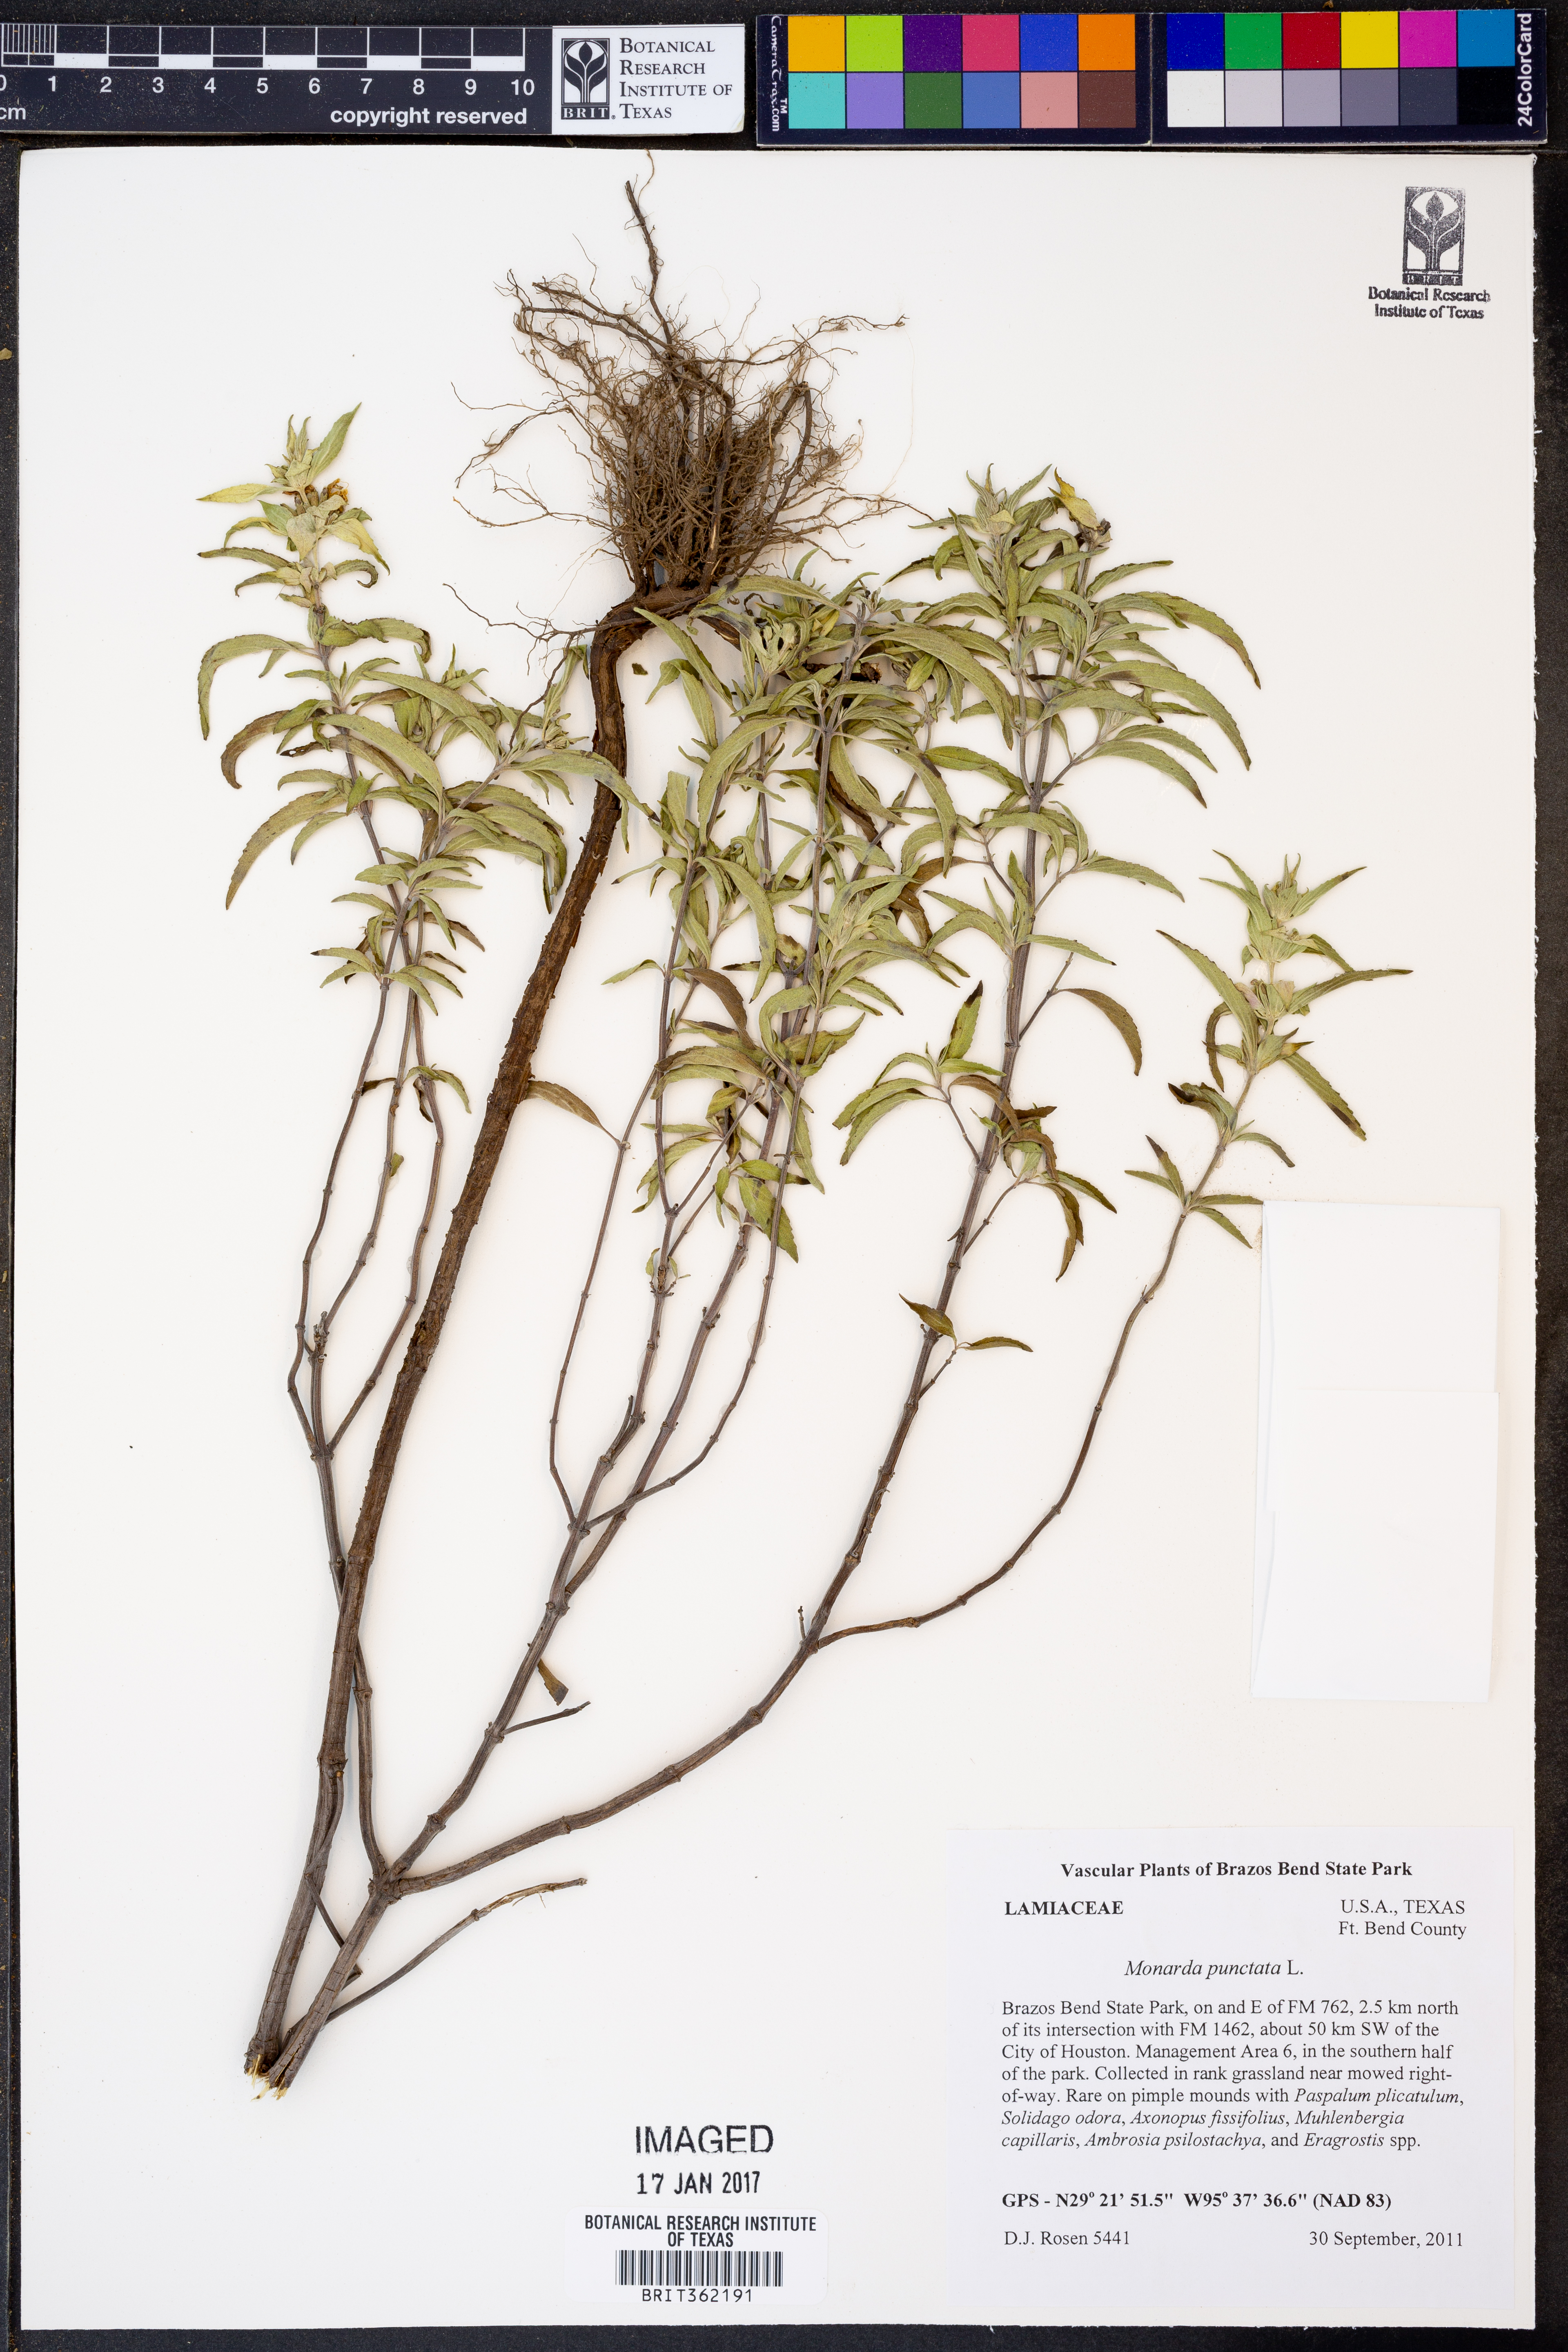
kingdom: Plantae
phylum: Tracheophyta
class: Magnoliopsida
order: Lamiales
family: Lamiaceae
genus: Monarda
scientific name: Monarda punctata
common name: Dotted monarda
